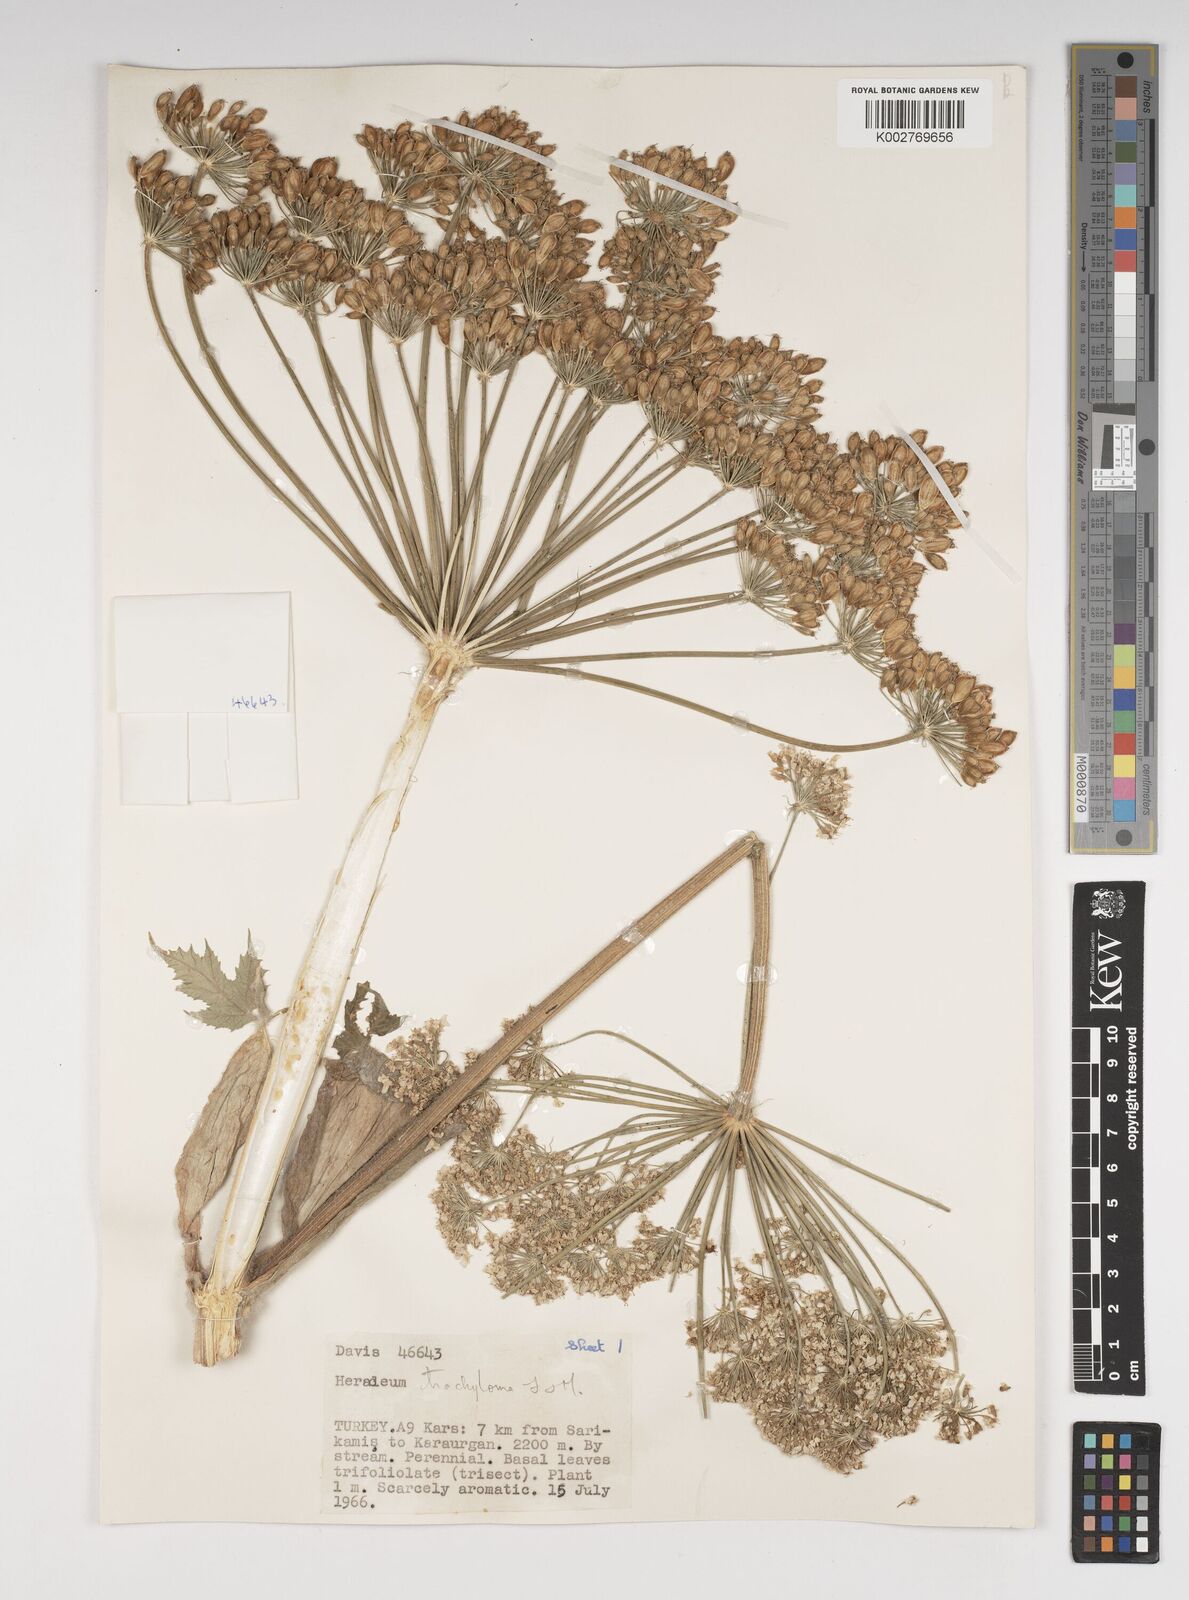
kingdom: Plantae
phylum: Tracheophyta
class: Magnoliopsida
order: Apiales
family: Apiaceae
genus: Heracleum
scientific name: Heracleum trachyloma
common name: Downy cow-parsnip
